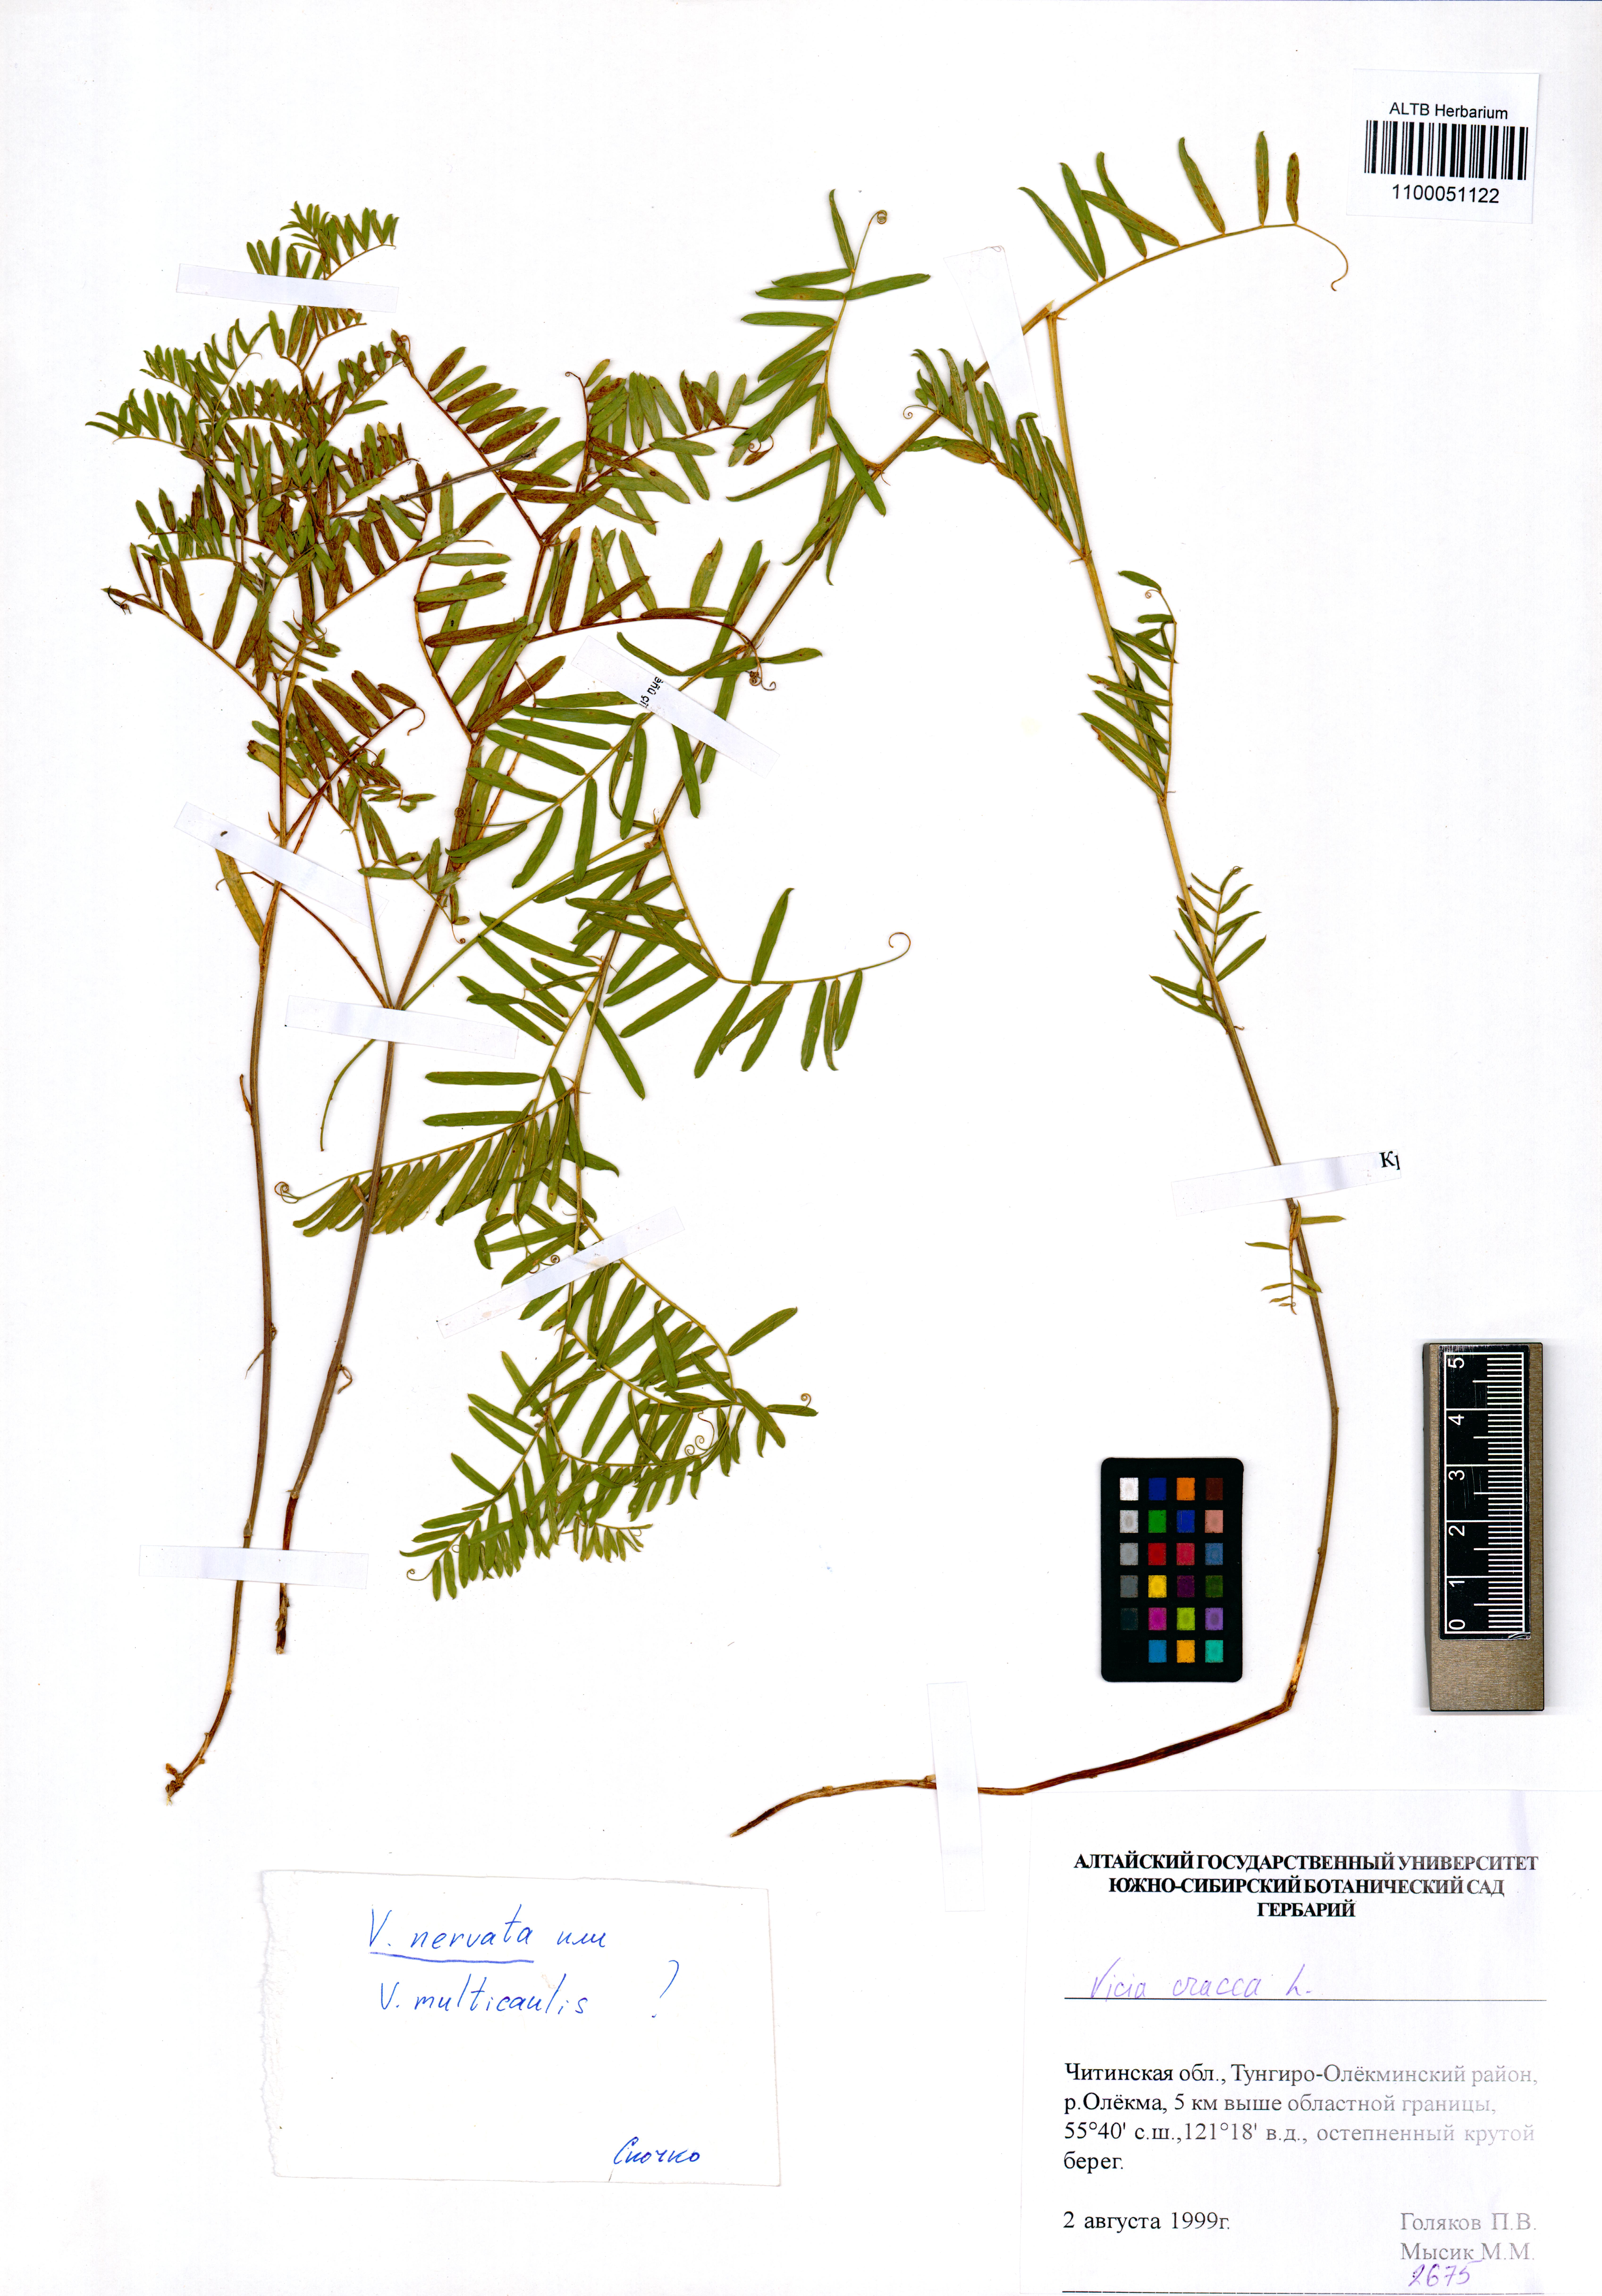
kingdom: Plantae
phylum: Tracheophyta
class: Magnoliopsida
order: Fabales
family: Fabaceae
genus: Vicia
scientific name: Vicia multicaulis
